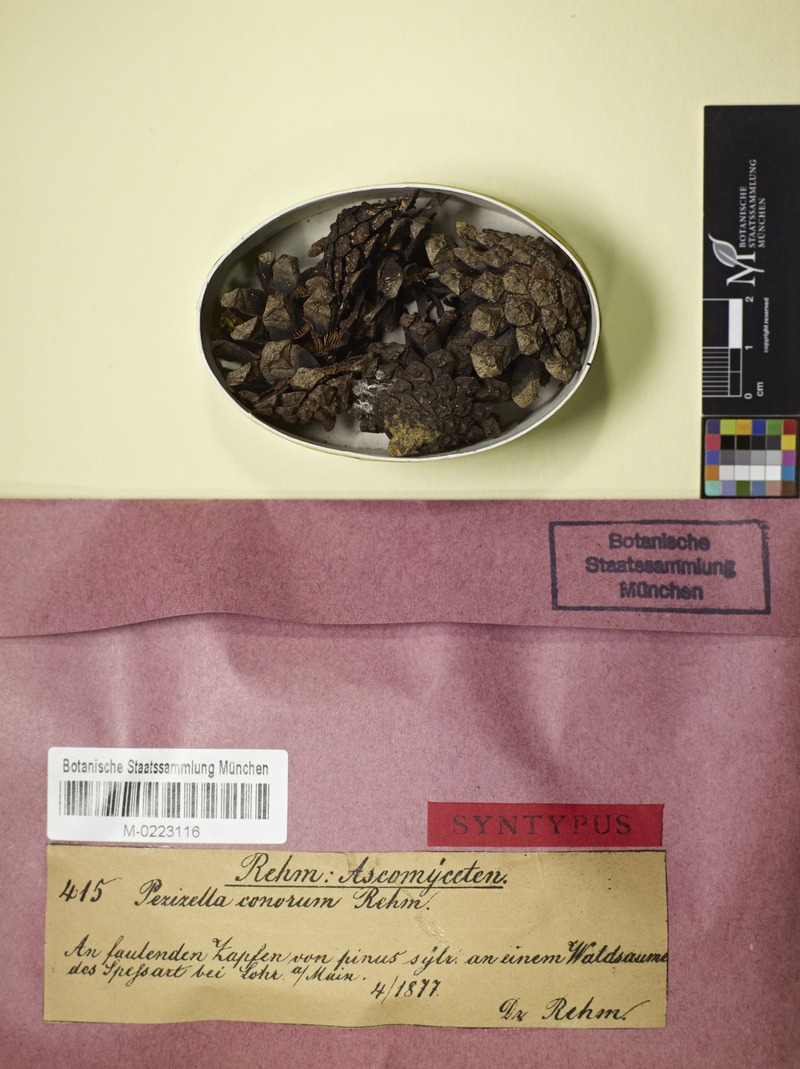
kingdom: Fungi
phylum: Ascomycota
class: Leotiomycetes
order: Helotiales
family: Pezizellaceae
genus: Calycina
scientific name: Calycina conorum
